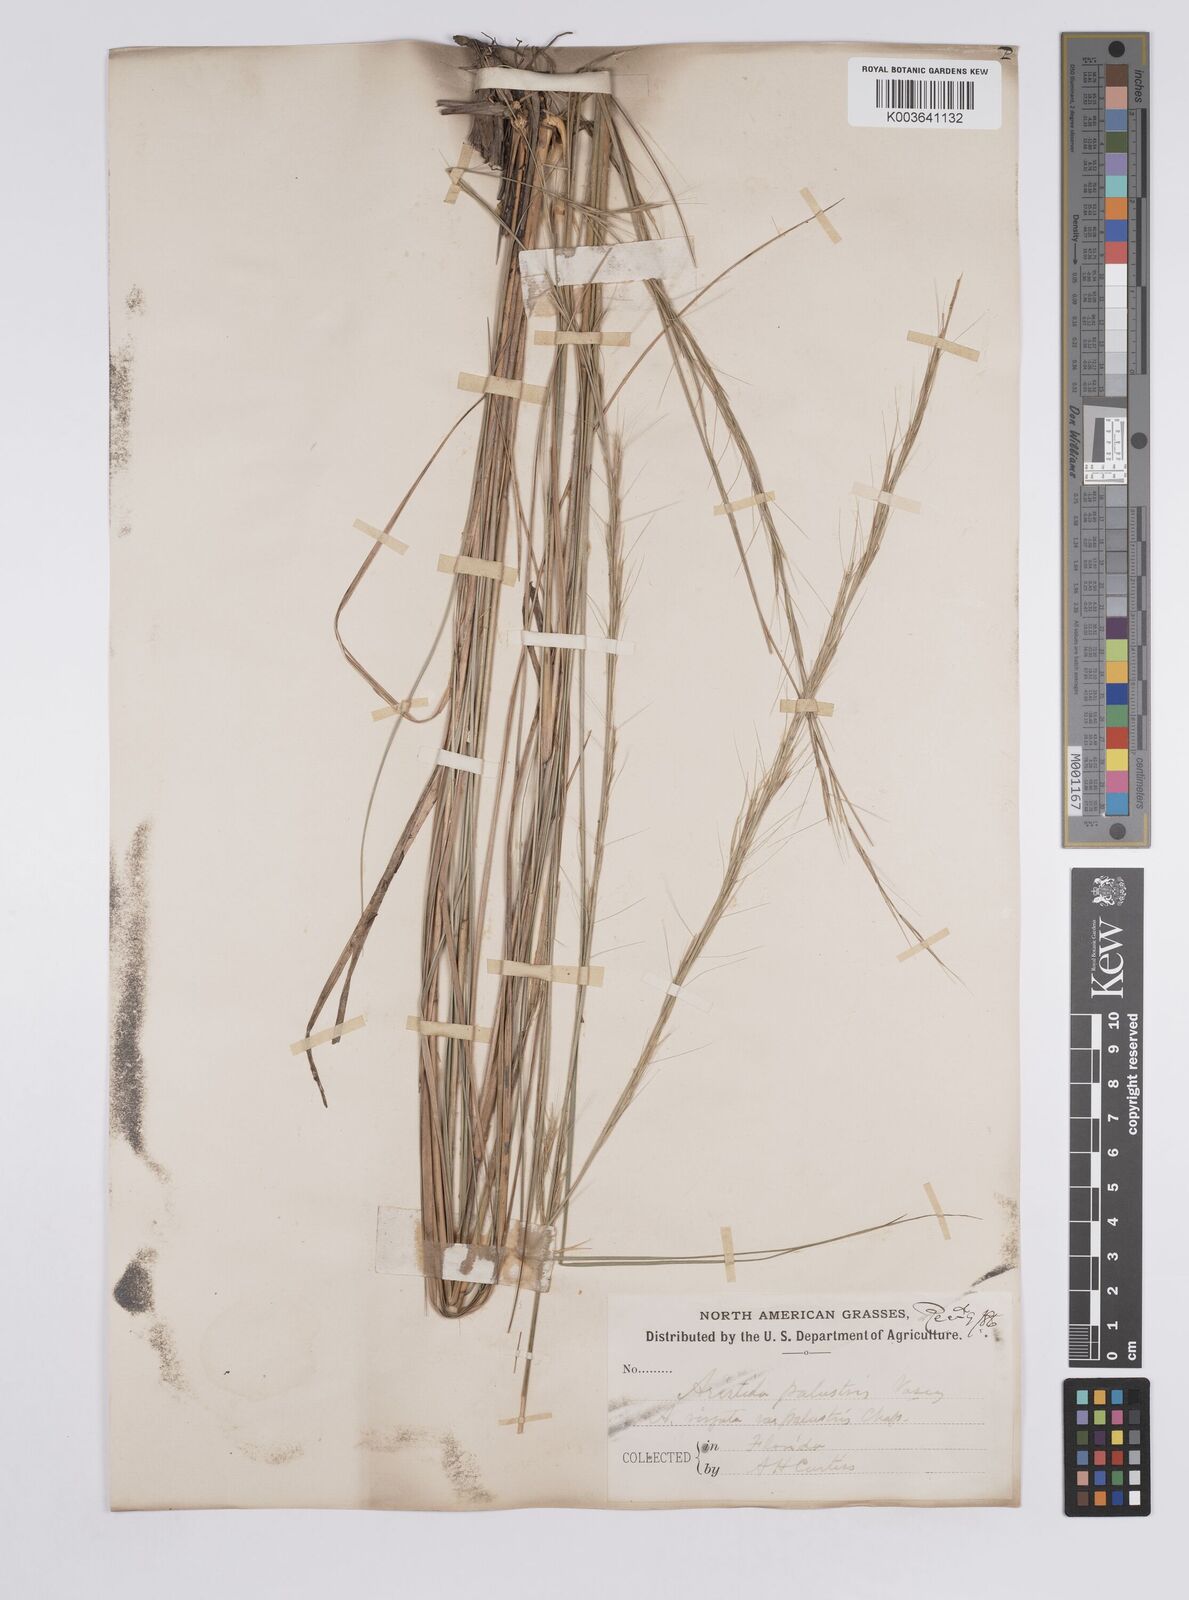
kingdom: Plantae
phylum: Tracheophyta
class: Liliopsida
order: Poales
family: Poaceae
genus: Aristida
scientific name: Aristida palustris
